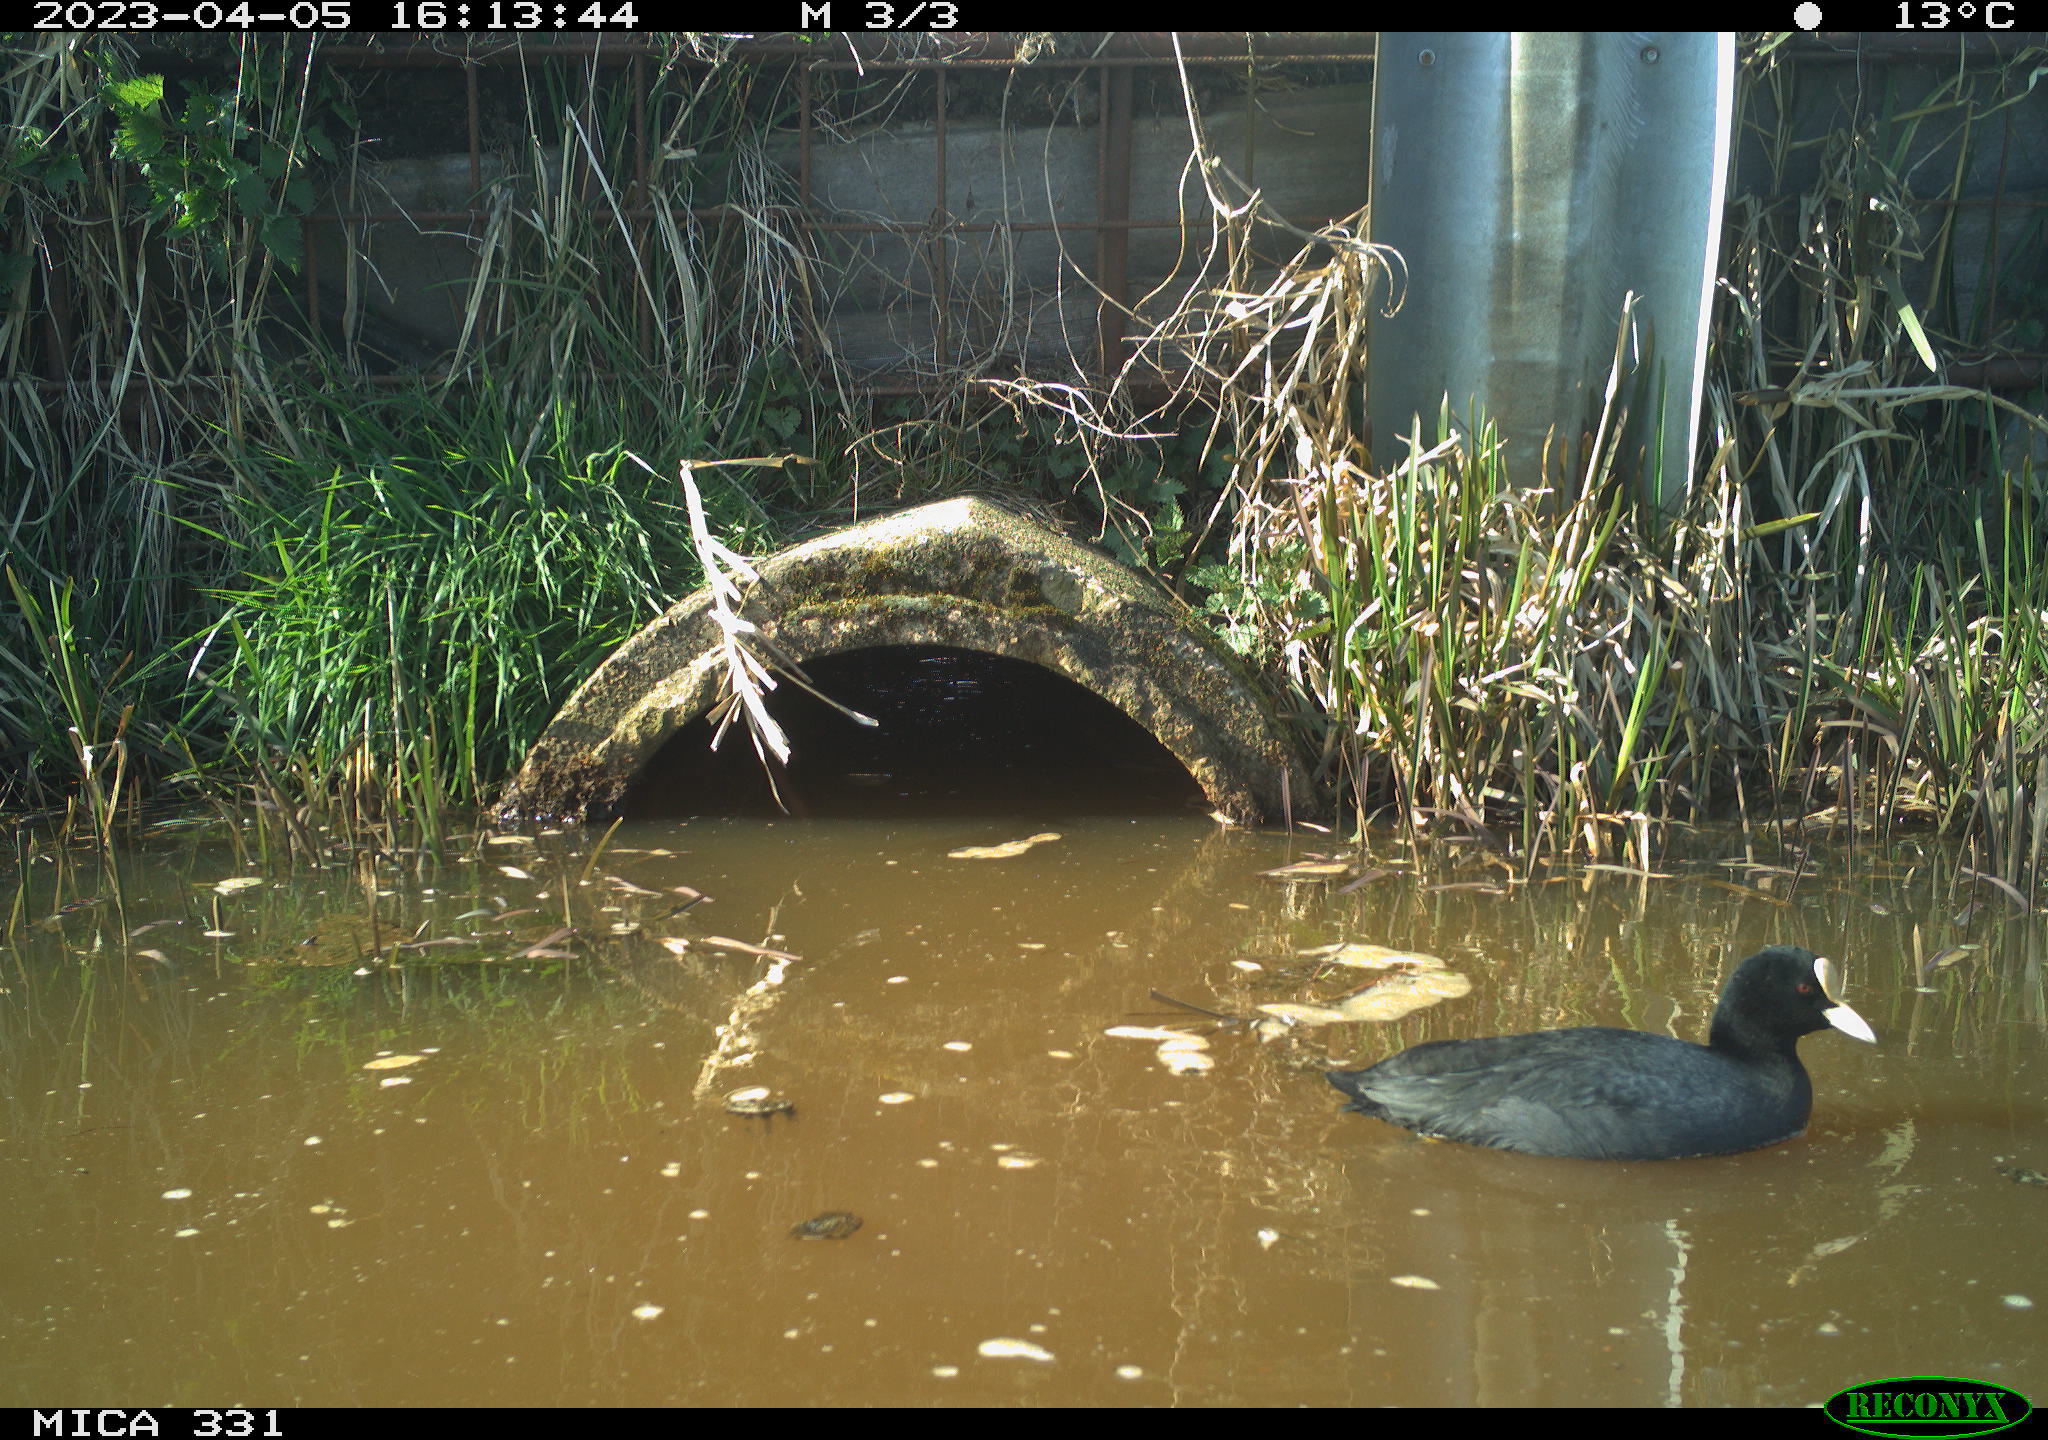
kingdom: Animalia
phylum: Chordata
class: Aves
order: Gruiformes
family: Rallidae
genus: Fulica
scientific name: Fulica atra
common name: Eurasian coot
